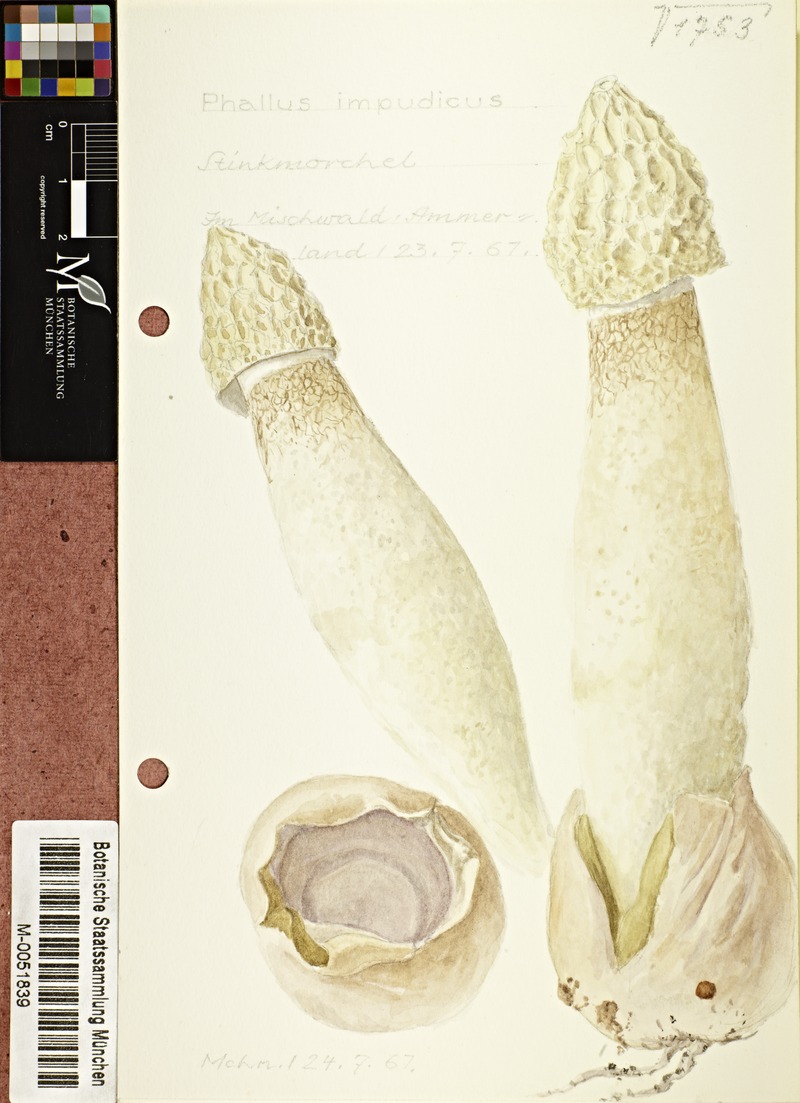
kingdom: Fungi
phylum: Basidiomycota
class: Agaricomycetes
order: Phallales
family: Phallaceae
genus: Phallus
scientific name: Phallus impudicus
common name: Common stinkhorn
